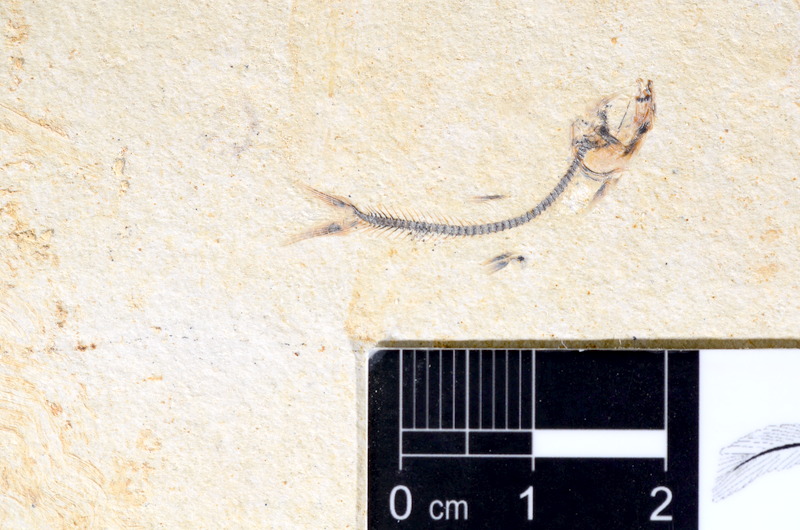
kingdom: Animalia
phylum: Chordata
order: Salmoniformes
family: Orthogonikleithridae
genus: Orthogonikleithrus
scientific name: Orthogonikleithrus hoelli
